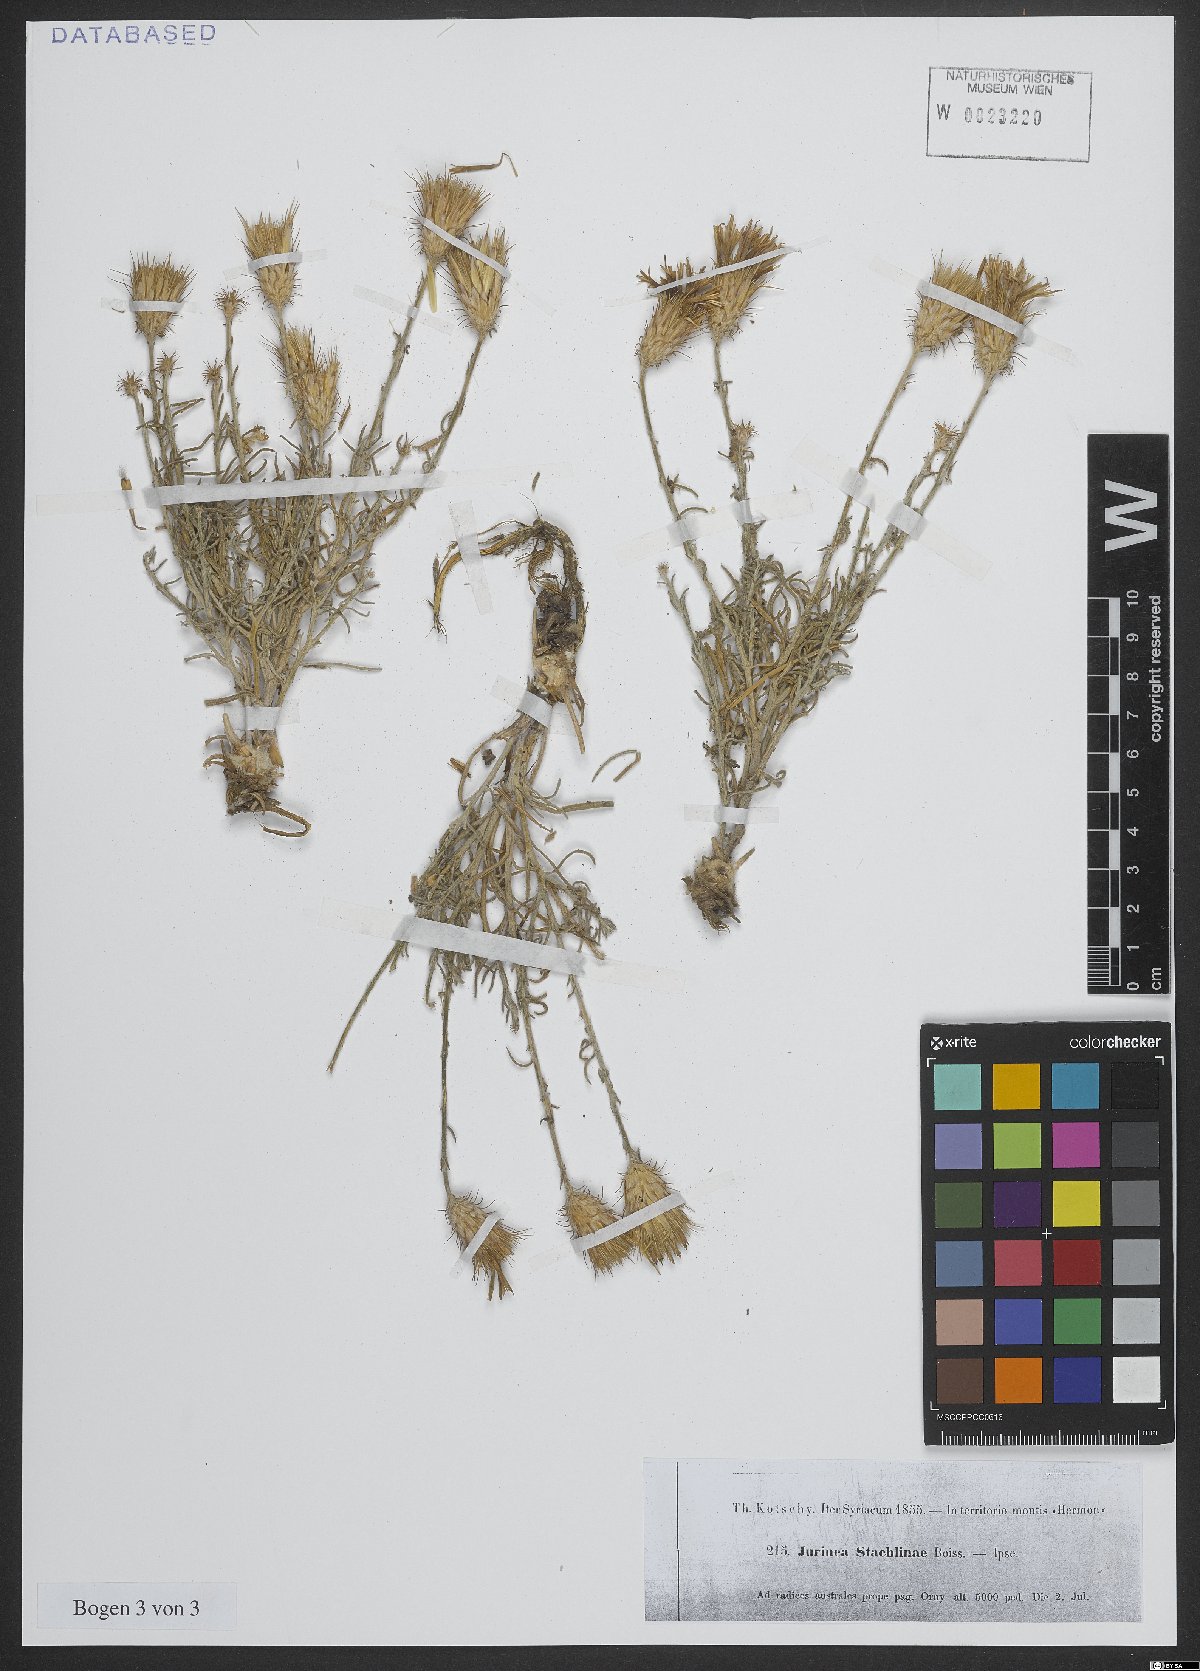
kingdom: Plantae
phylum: Tracheophyta
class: Magnoliopsida
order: Asterales
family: Asteraceae
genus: Jurinea
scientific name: Jurinea staehelinae
